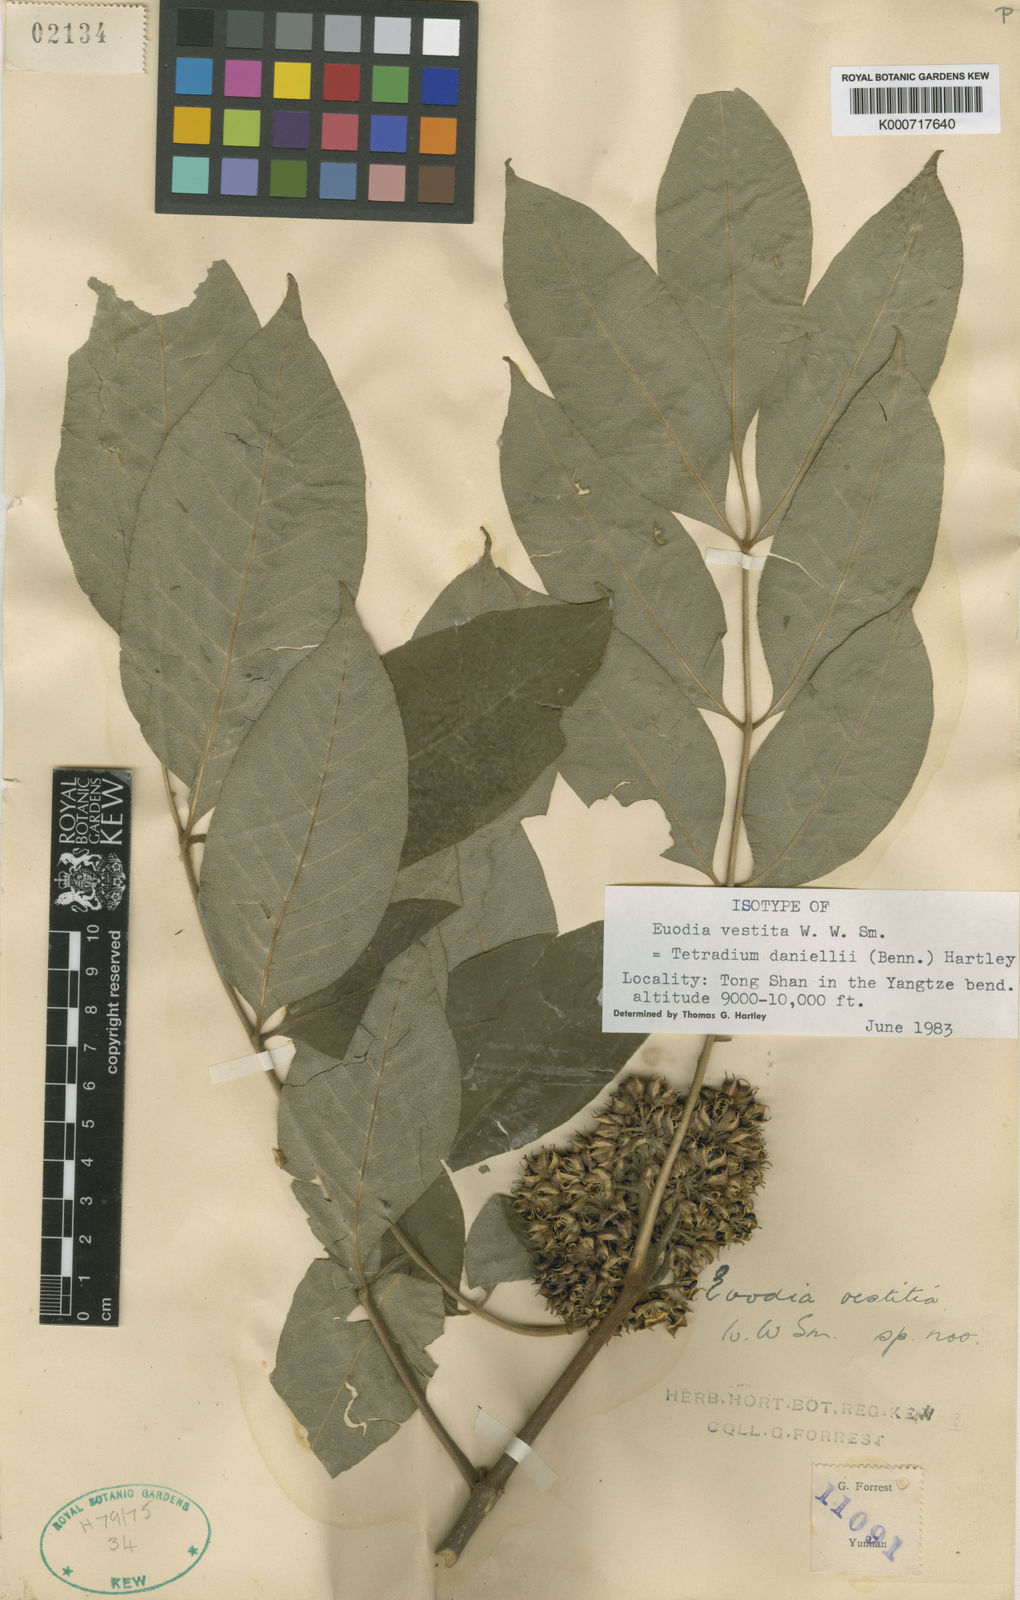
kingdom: Plantae
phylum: Tracheophyta
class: Magnoliopsida
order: Sapindales
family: Rutaceae
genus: Tetradium
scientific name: Tetradium daniellii
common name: Bee-bee tree
